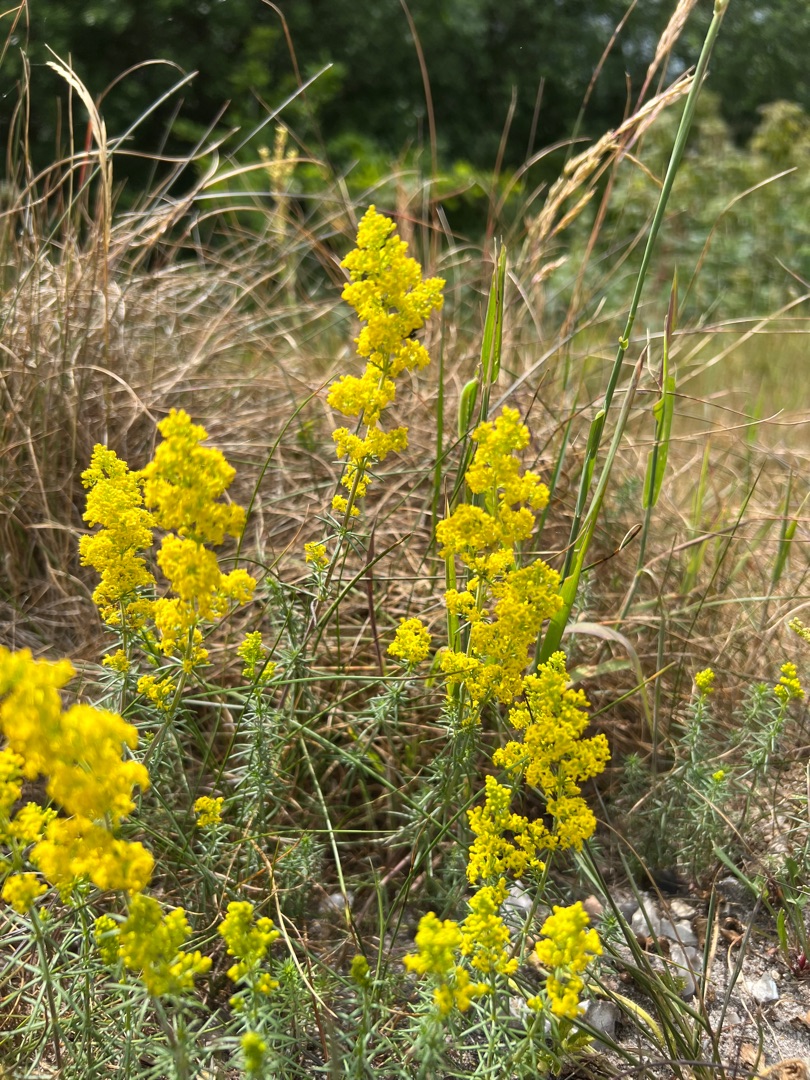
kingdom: Plantae
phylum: Tracheophyta
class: Magnoliopsida
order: Gentianales
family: Rubiaceae
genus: Galium
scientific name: Galium verum
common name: Gul snerre
